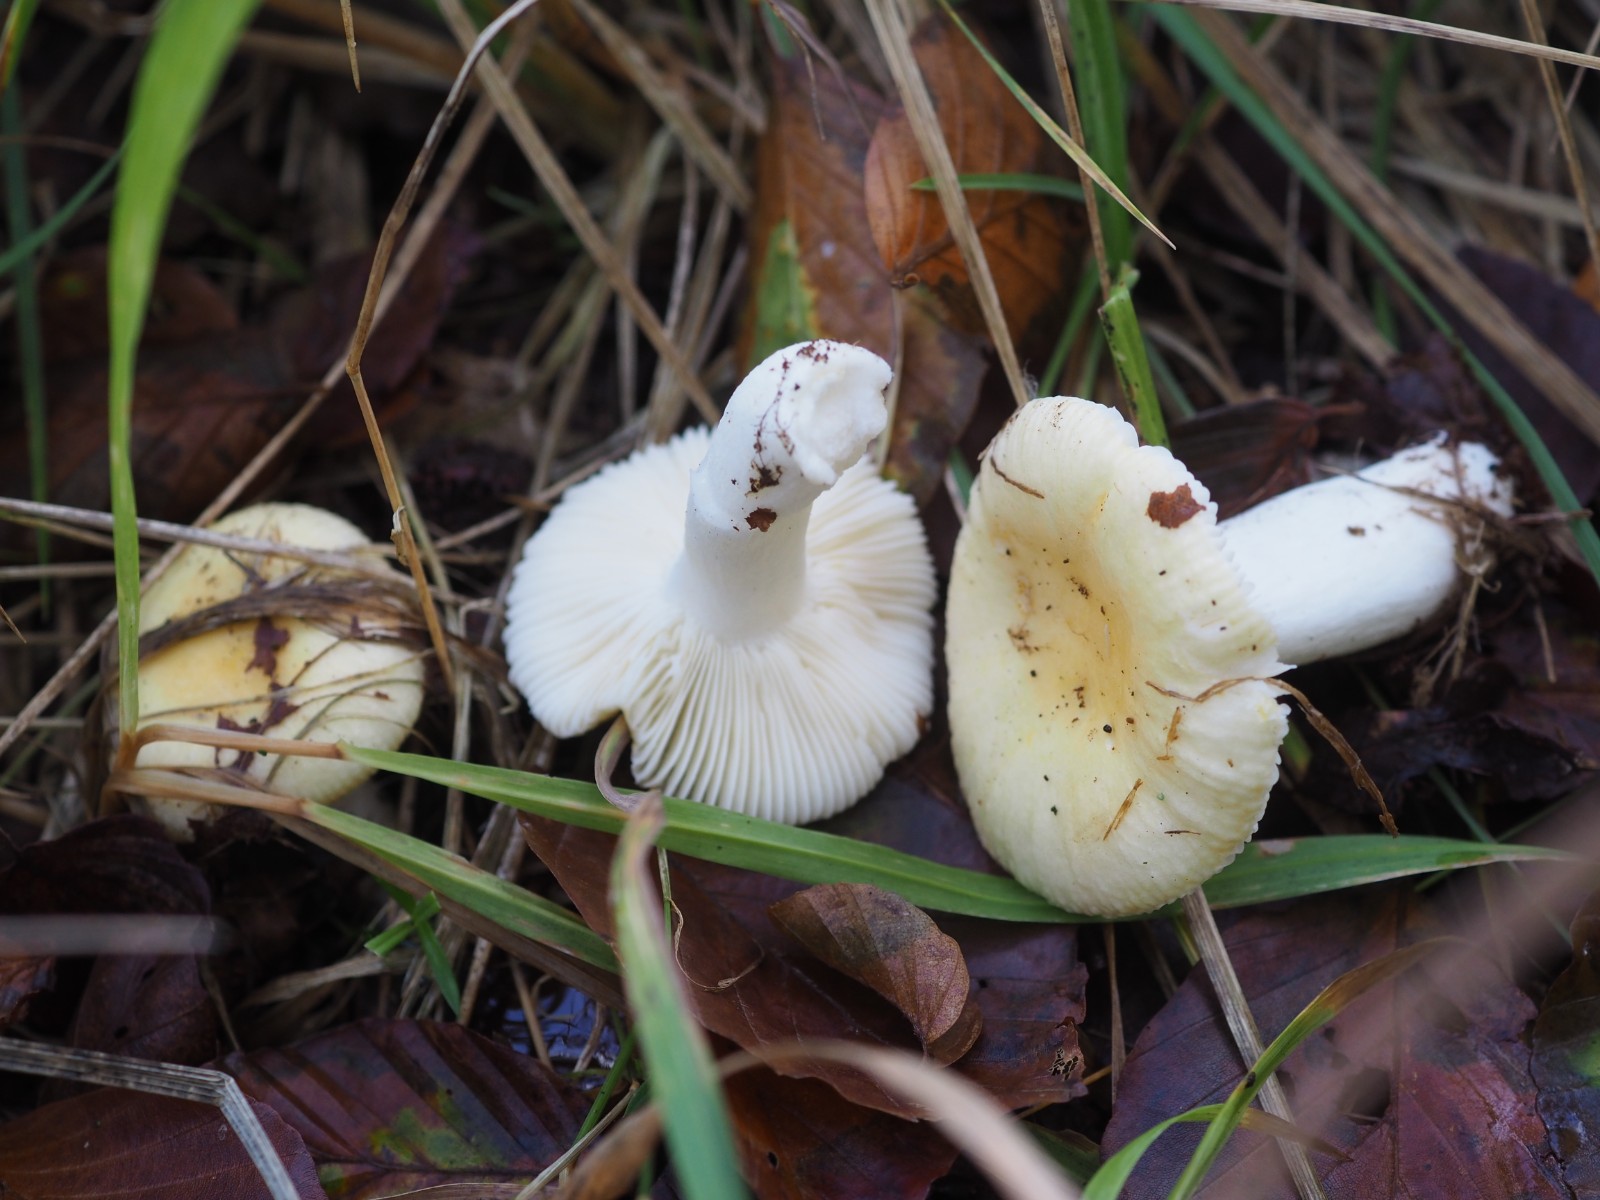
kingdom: Fungi
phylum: Basidiomycota
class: Agaricomycetes
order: Russulales
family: Russulaceae
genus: Russula
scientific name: Russula solaris
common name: sol-skørhat
